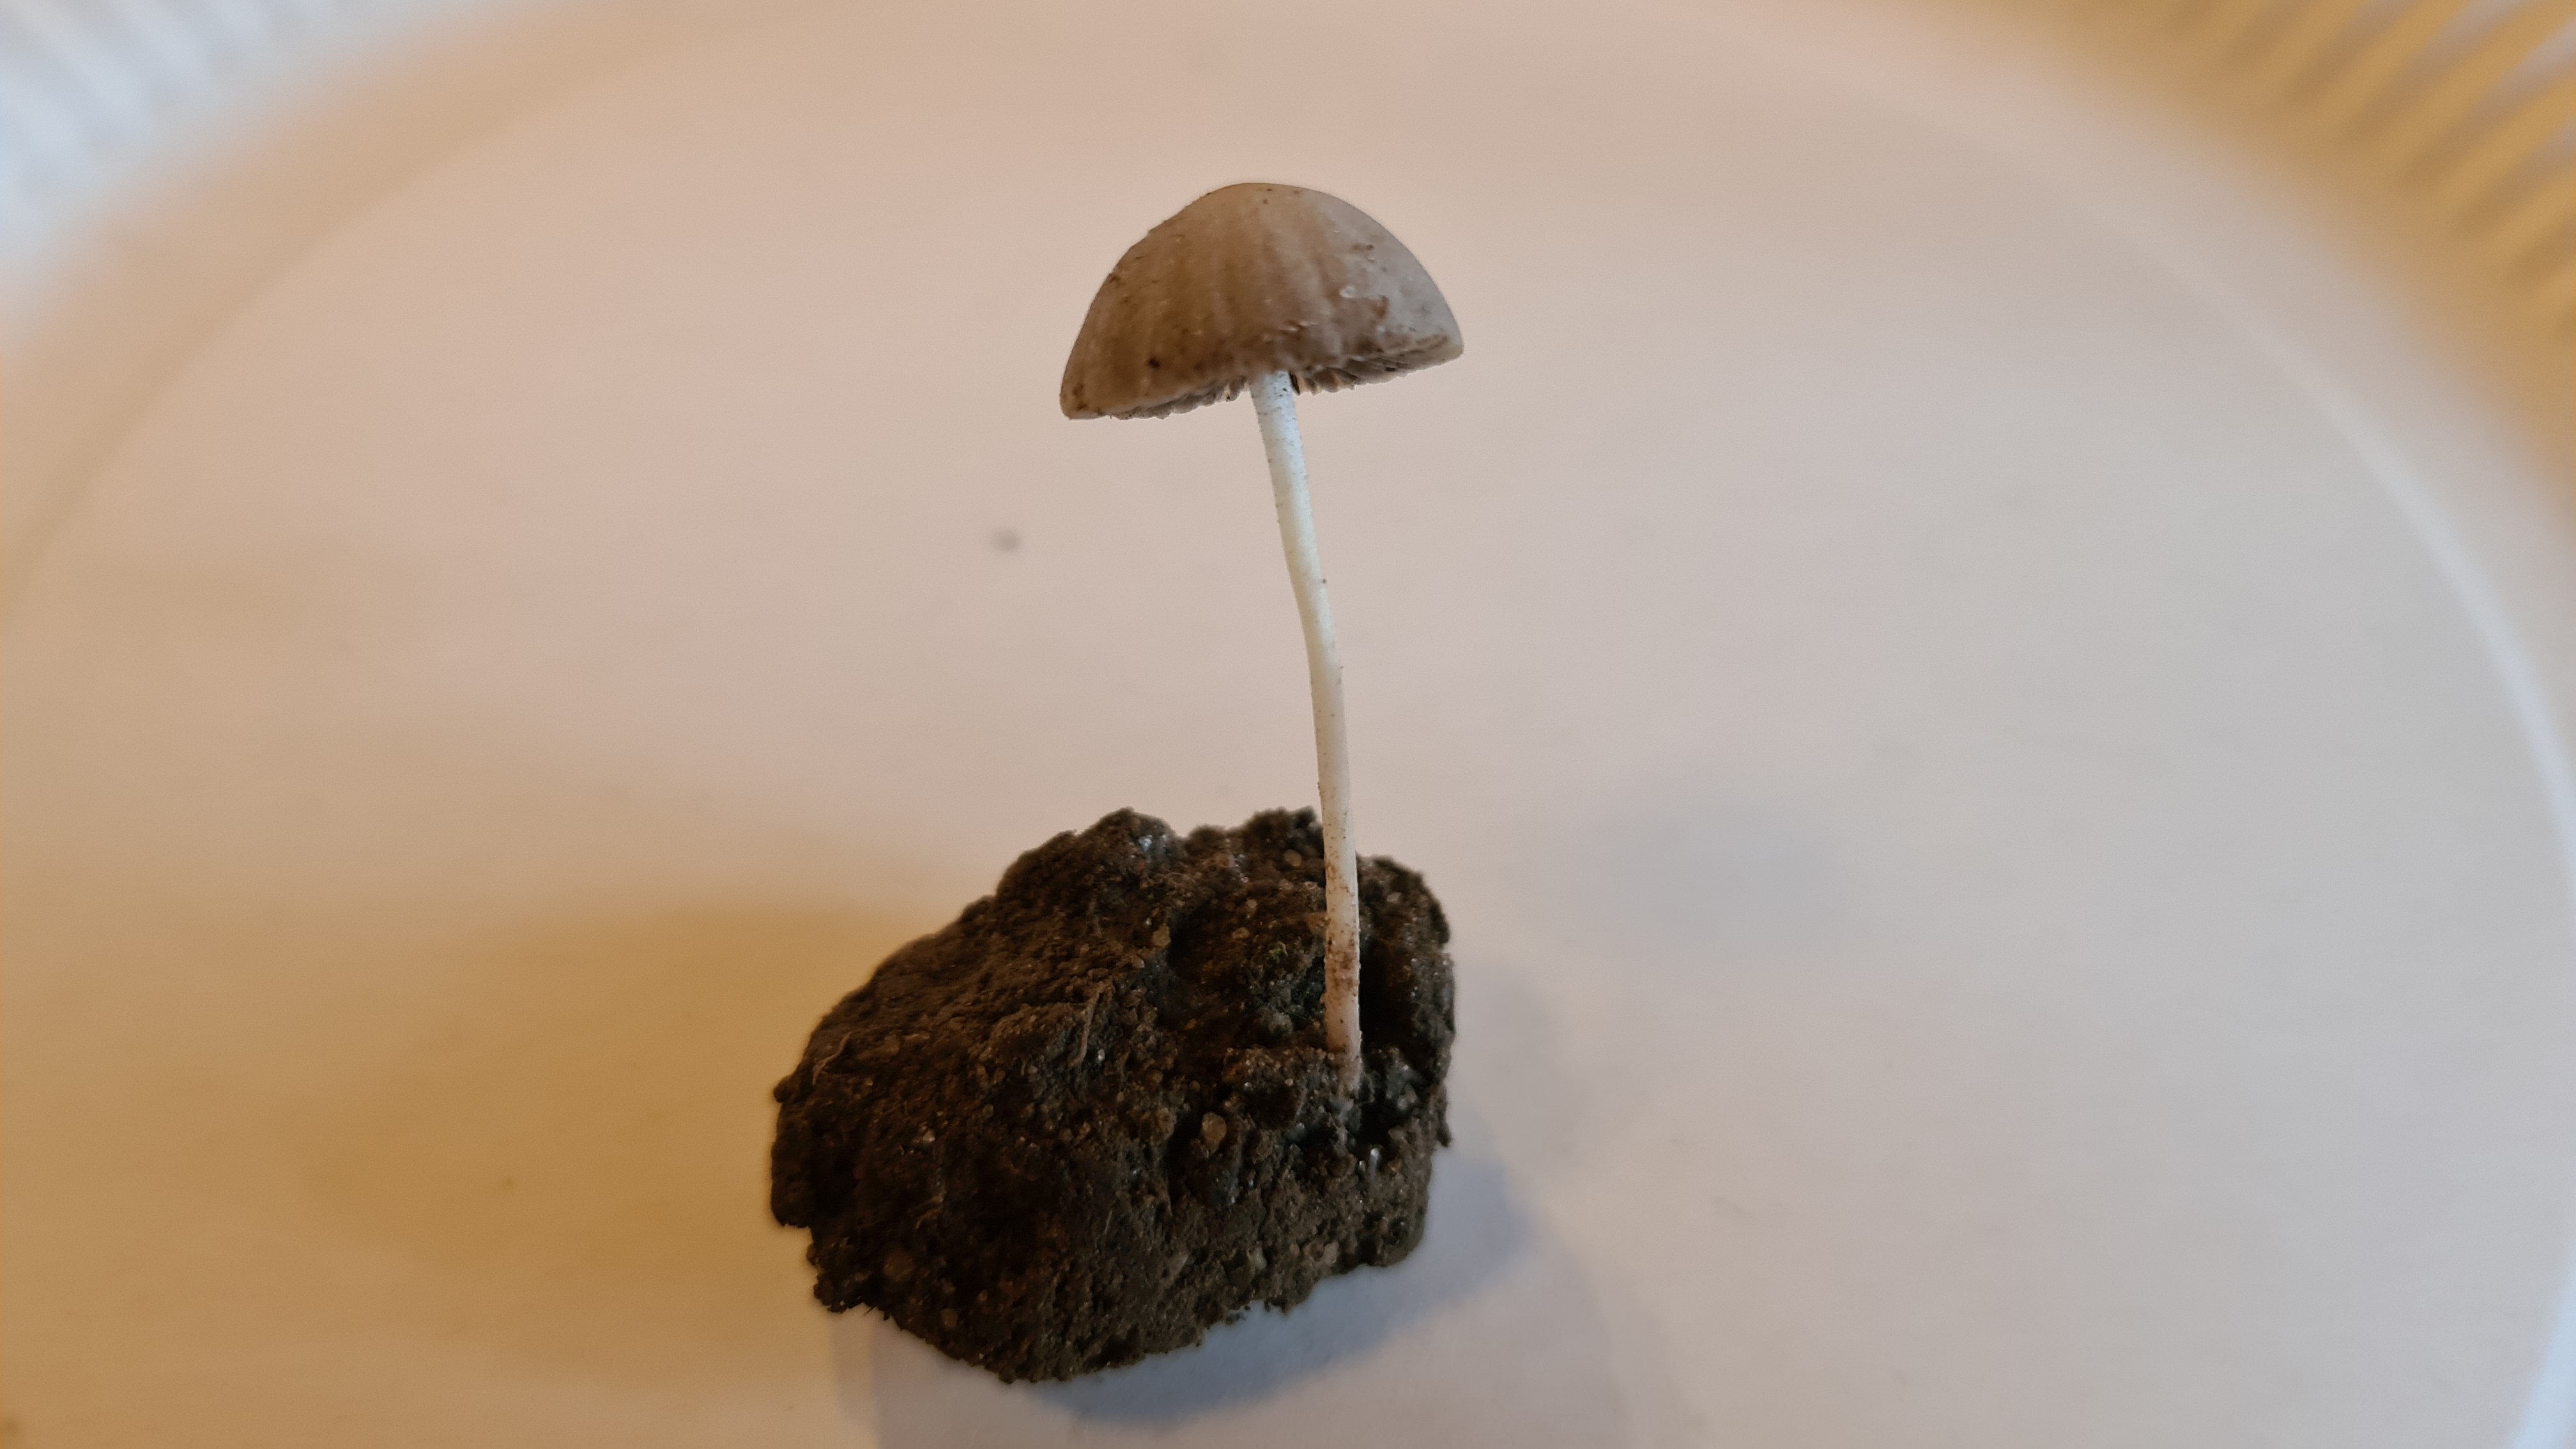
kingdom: Fungi
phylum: Basidiomycota
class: Agaricomycetes
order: Agaricales
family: Psathyrellaceae
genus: Psathyrella
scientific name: Psathyrella
